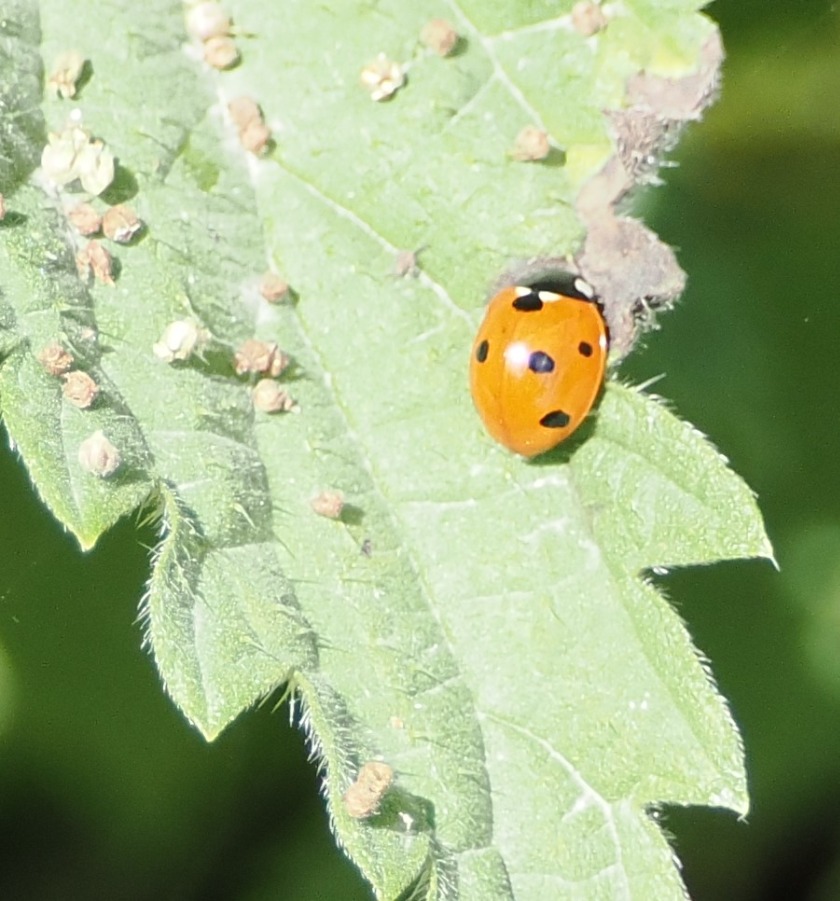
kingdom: Animalia
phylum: Arthropoda
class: Insecta
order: Coleoptera
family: Coccinellidae
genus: Coccinella
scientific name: Coccinella septempunctata
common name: Syvplettet mariehøne
